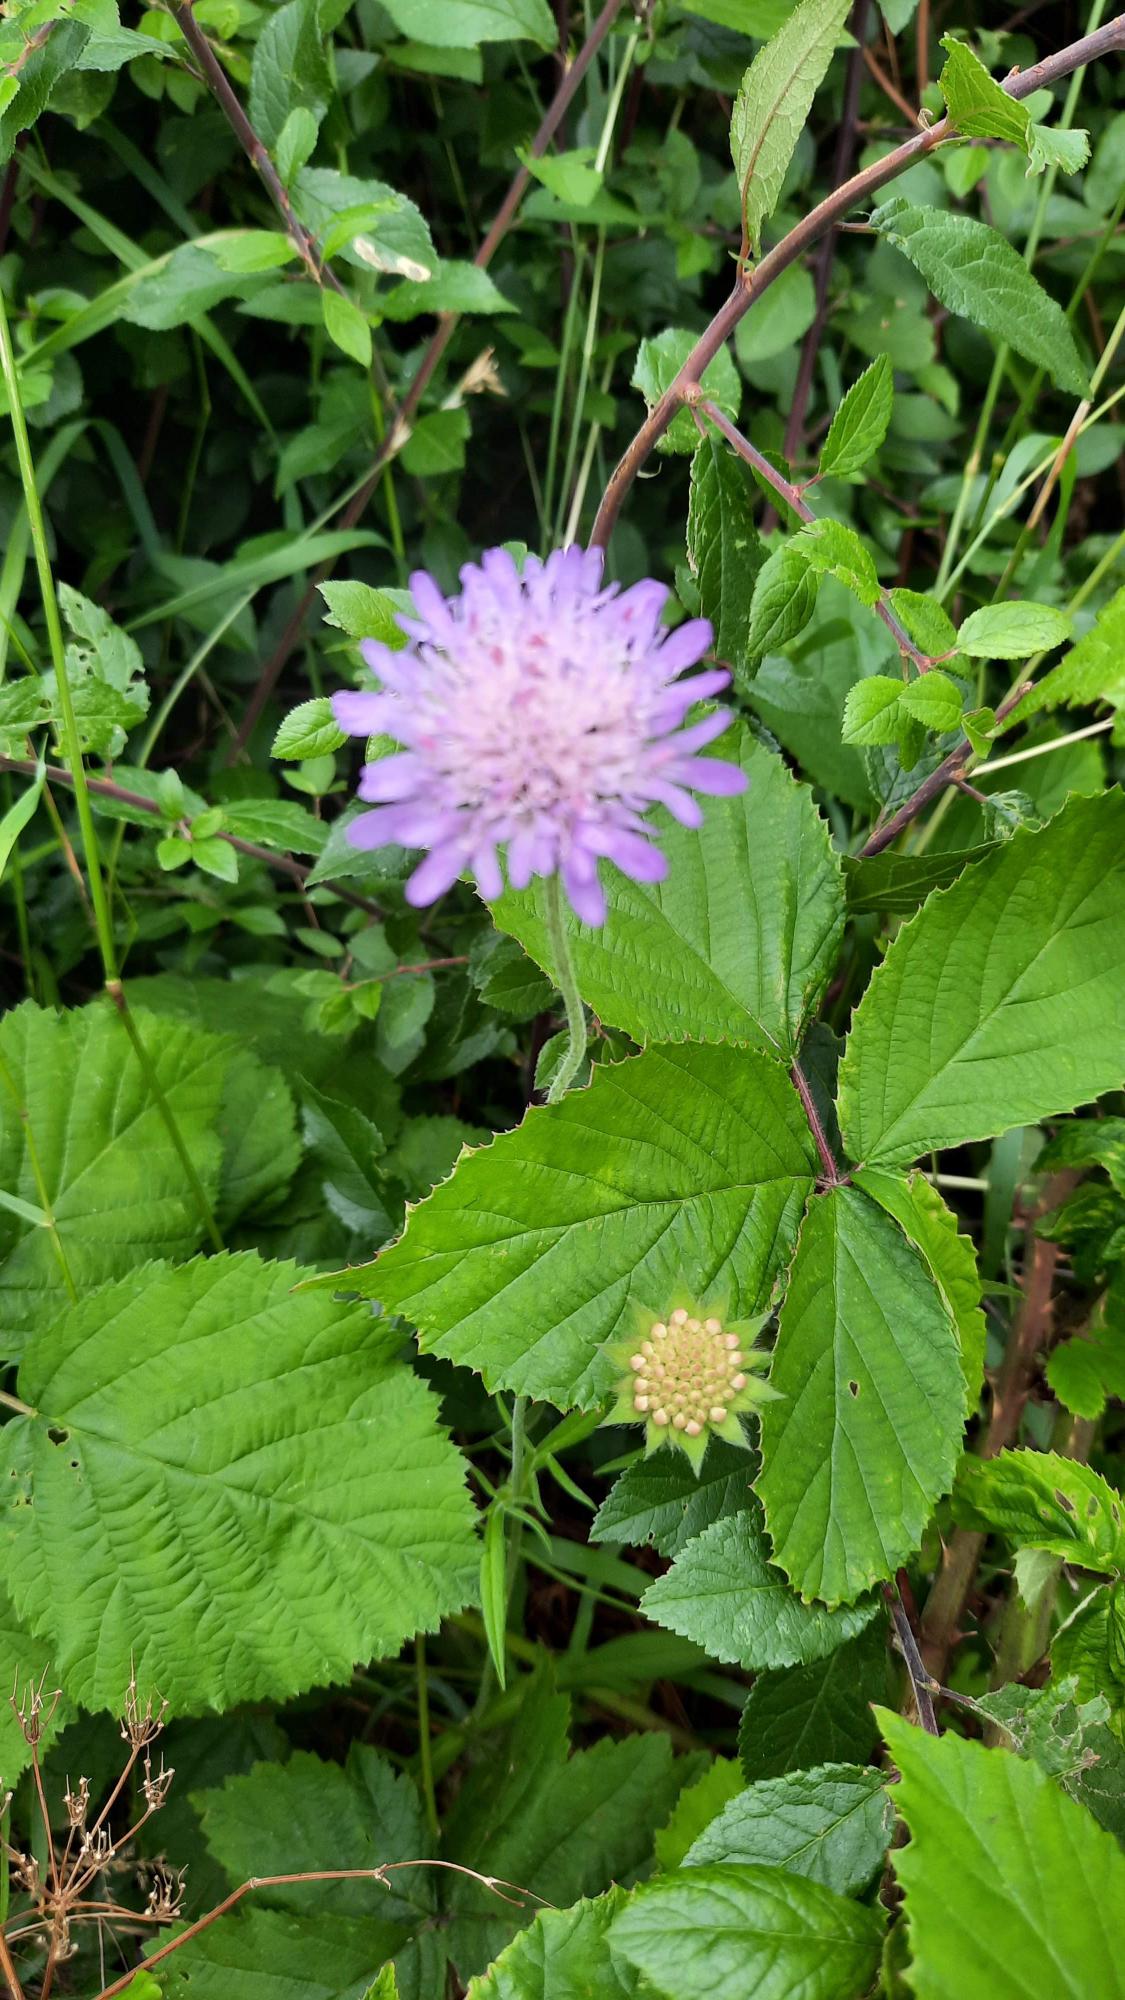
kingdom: Plantae
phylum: Tracheophyta
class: Magnoliopsida
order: Dipsacales
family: Caprifoliaceae
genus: Knautia
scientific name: Knautia arvensis
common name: Blåhat
